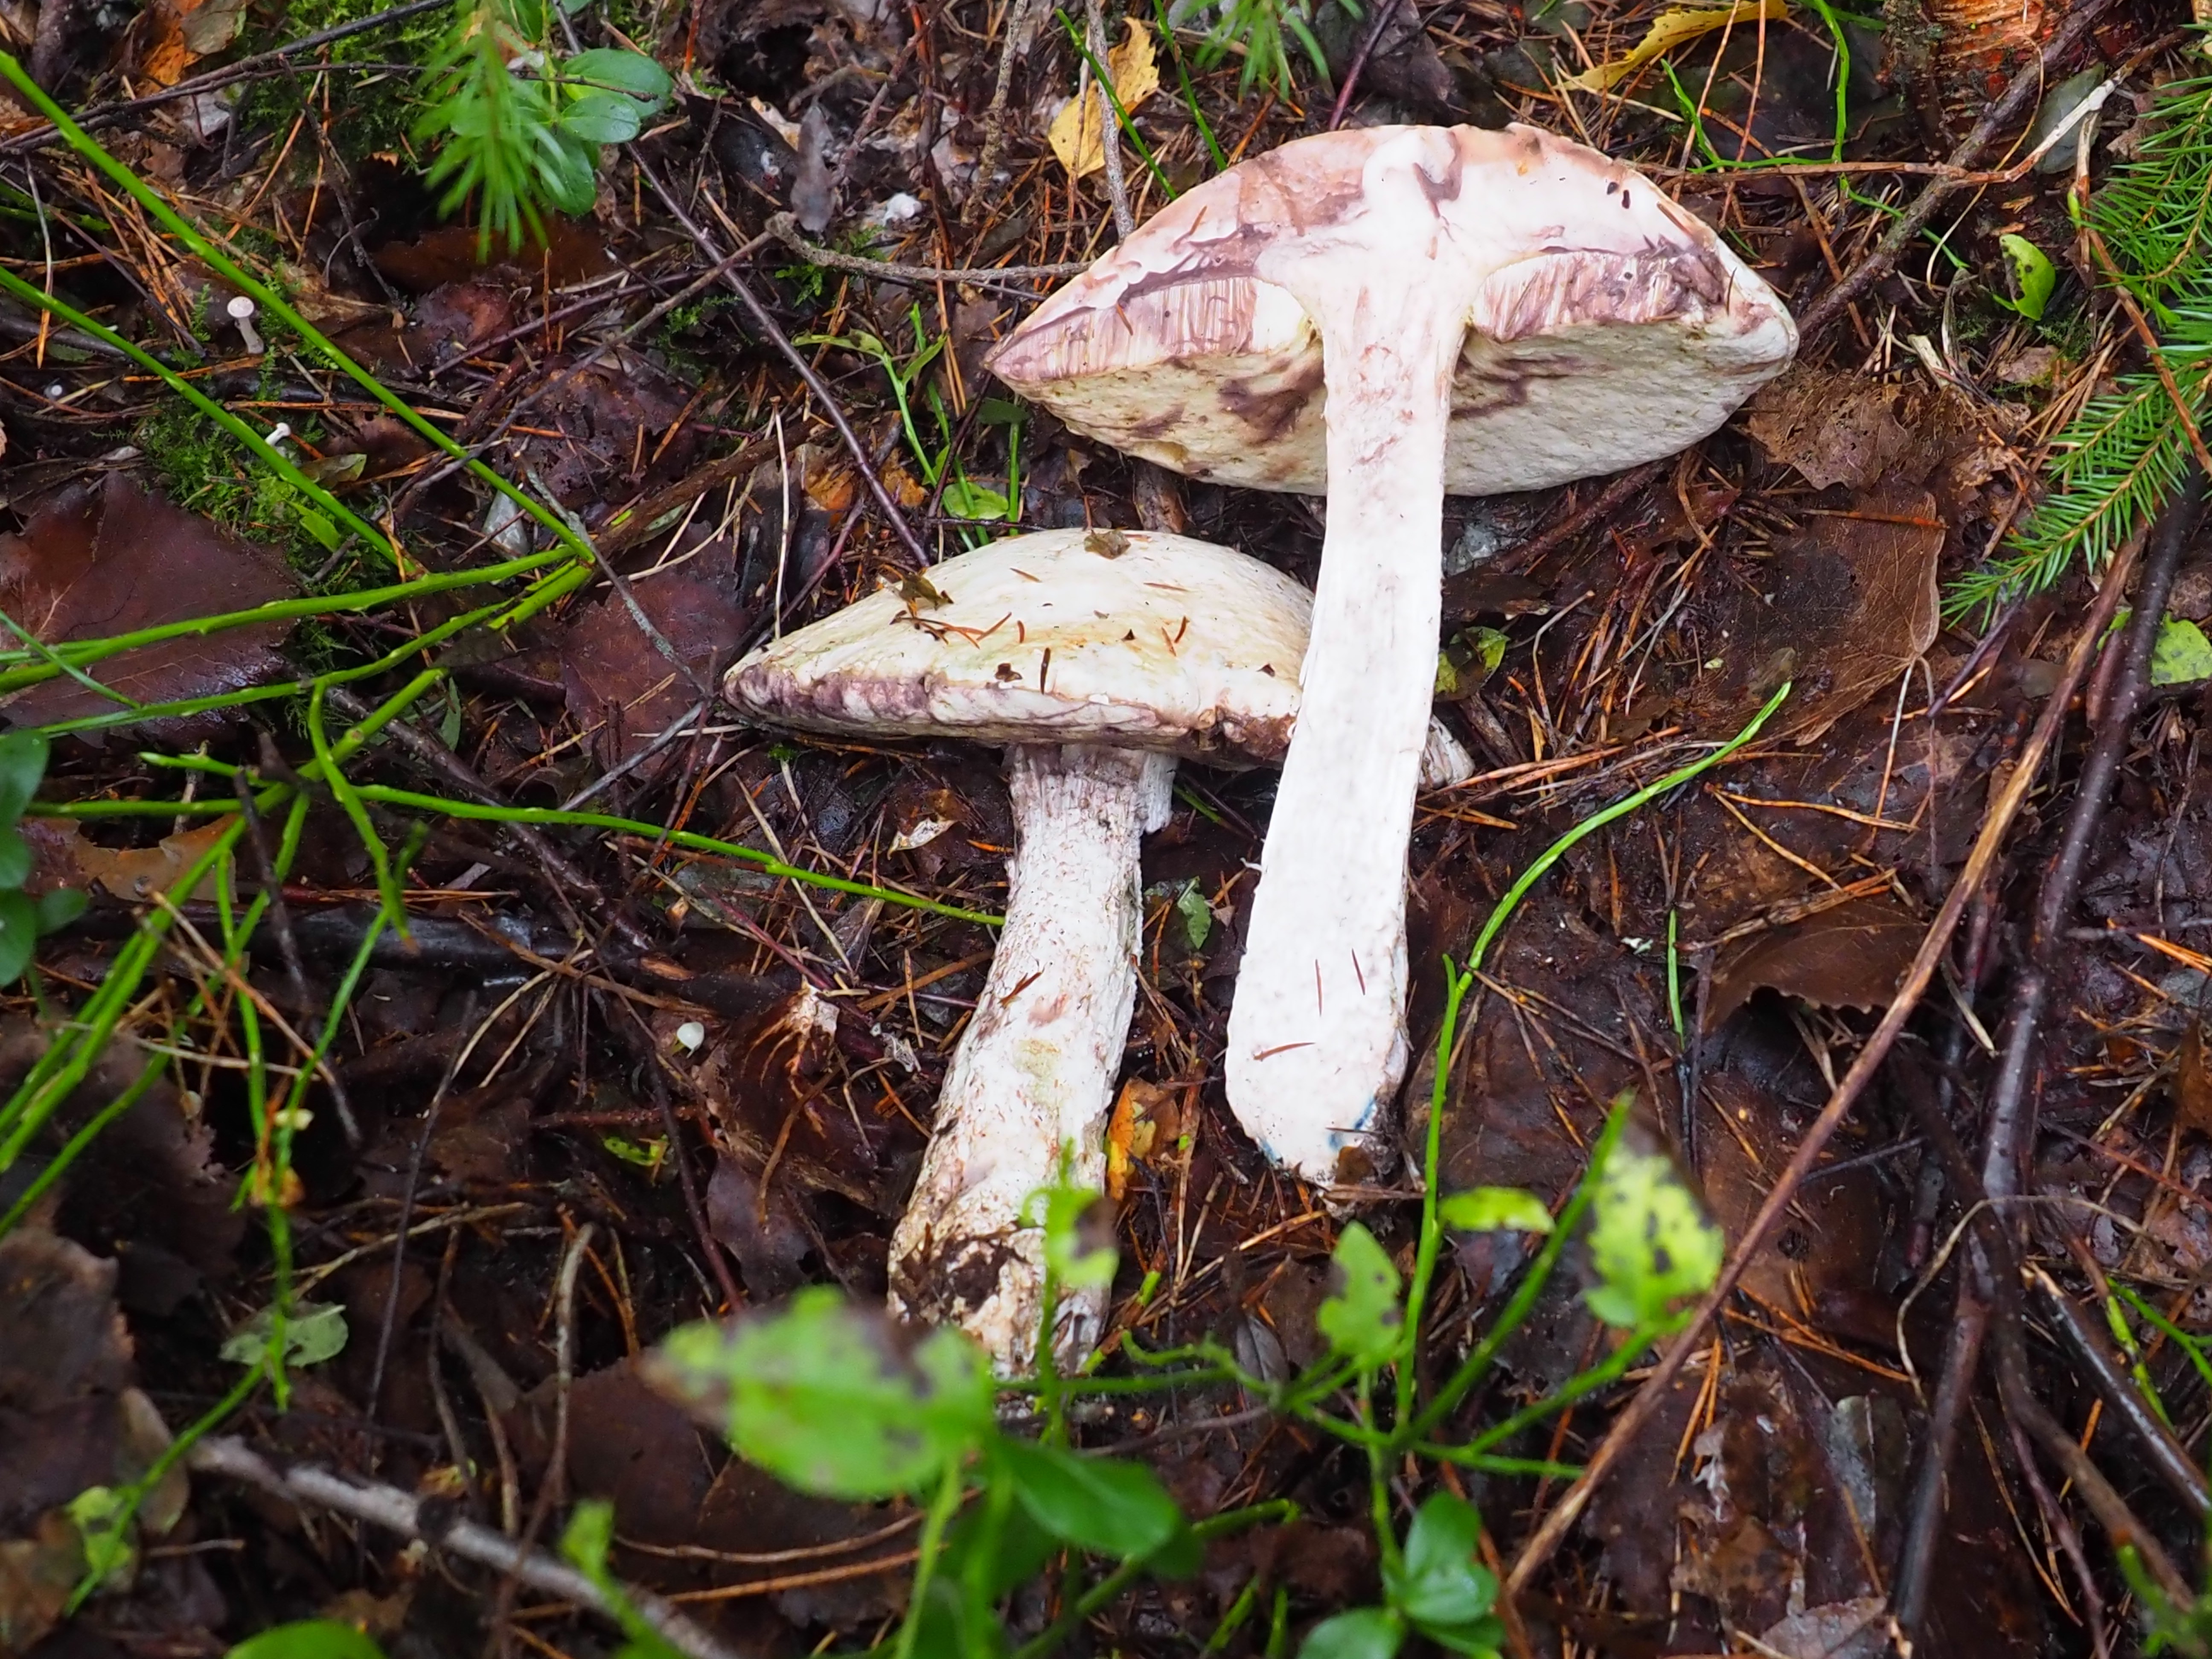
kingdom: Fungi
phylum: Basidiomycota
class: Agaricomycetes
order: Boletales
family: Boletaceae
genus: Leccinum
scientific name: Leccinum versipelle
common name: Orange birch bolete
